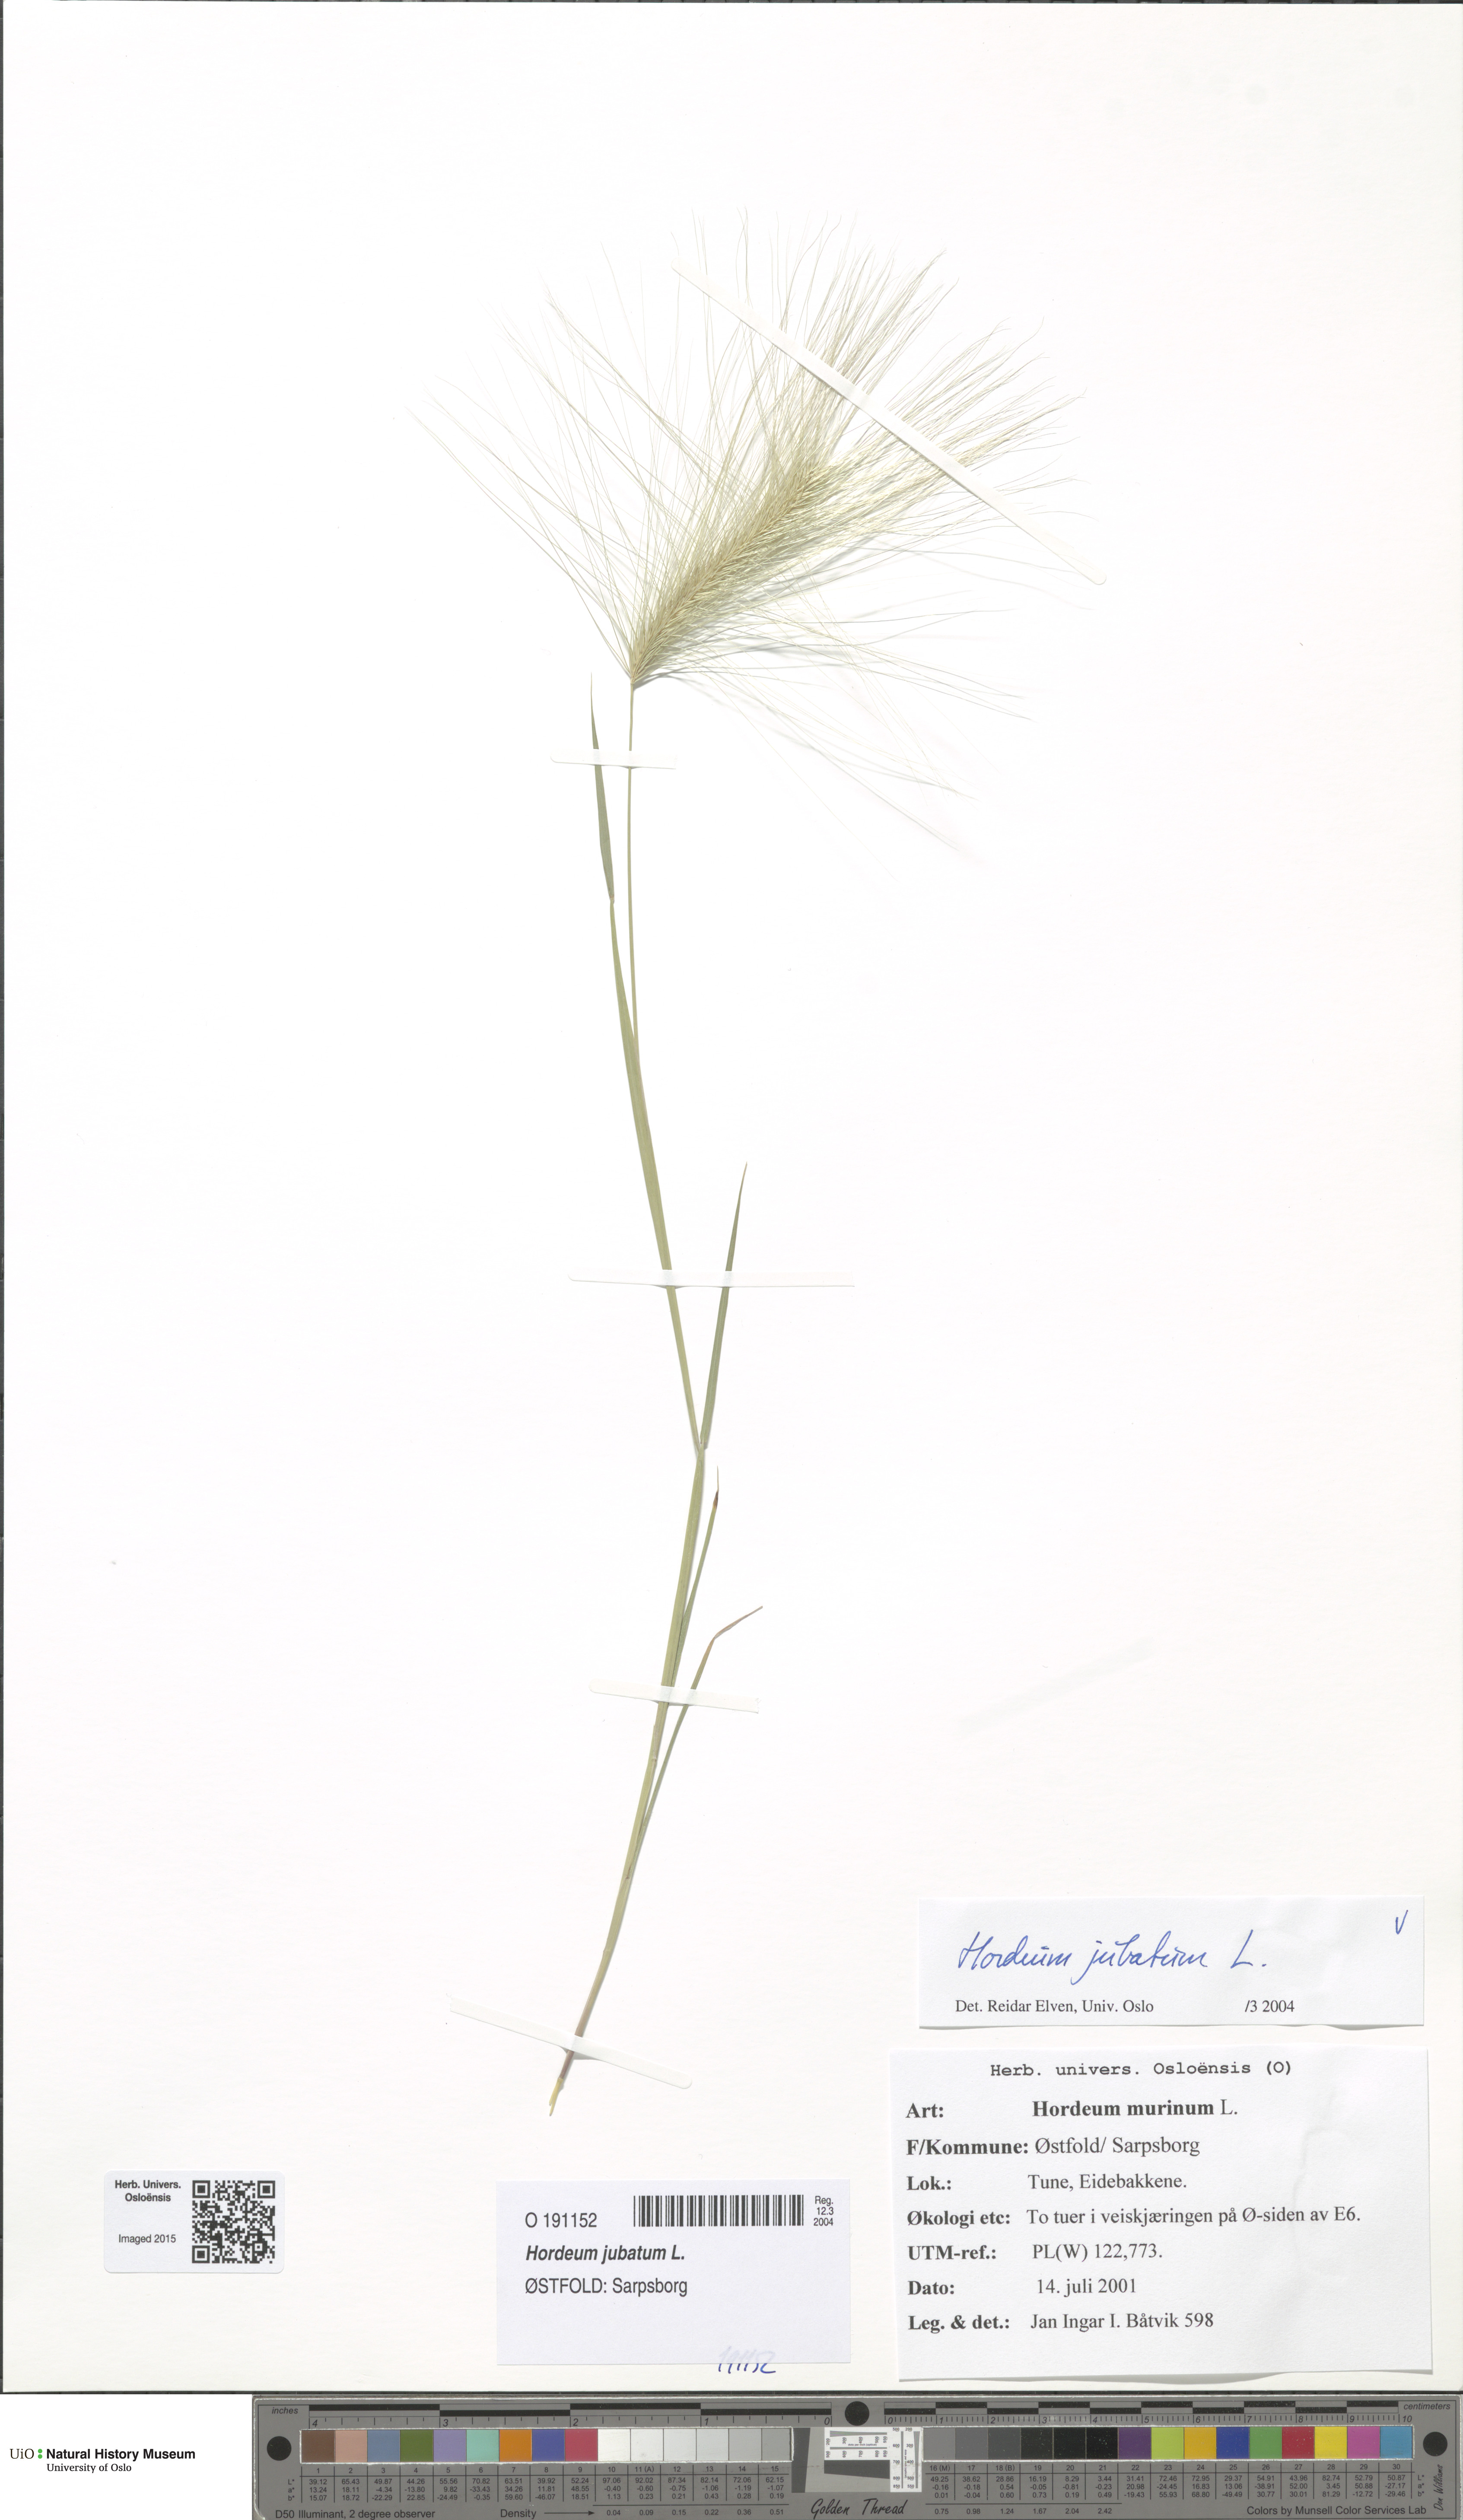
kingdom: Plantae
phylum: Tracheophyta
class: Liliopsida
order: Poales
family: Poaceae
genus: Hordeum
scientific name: Hordeum jubatum
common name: Foxtail barley
